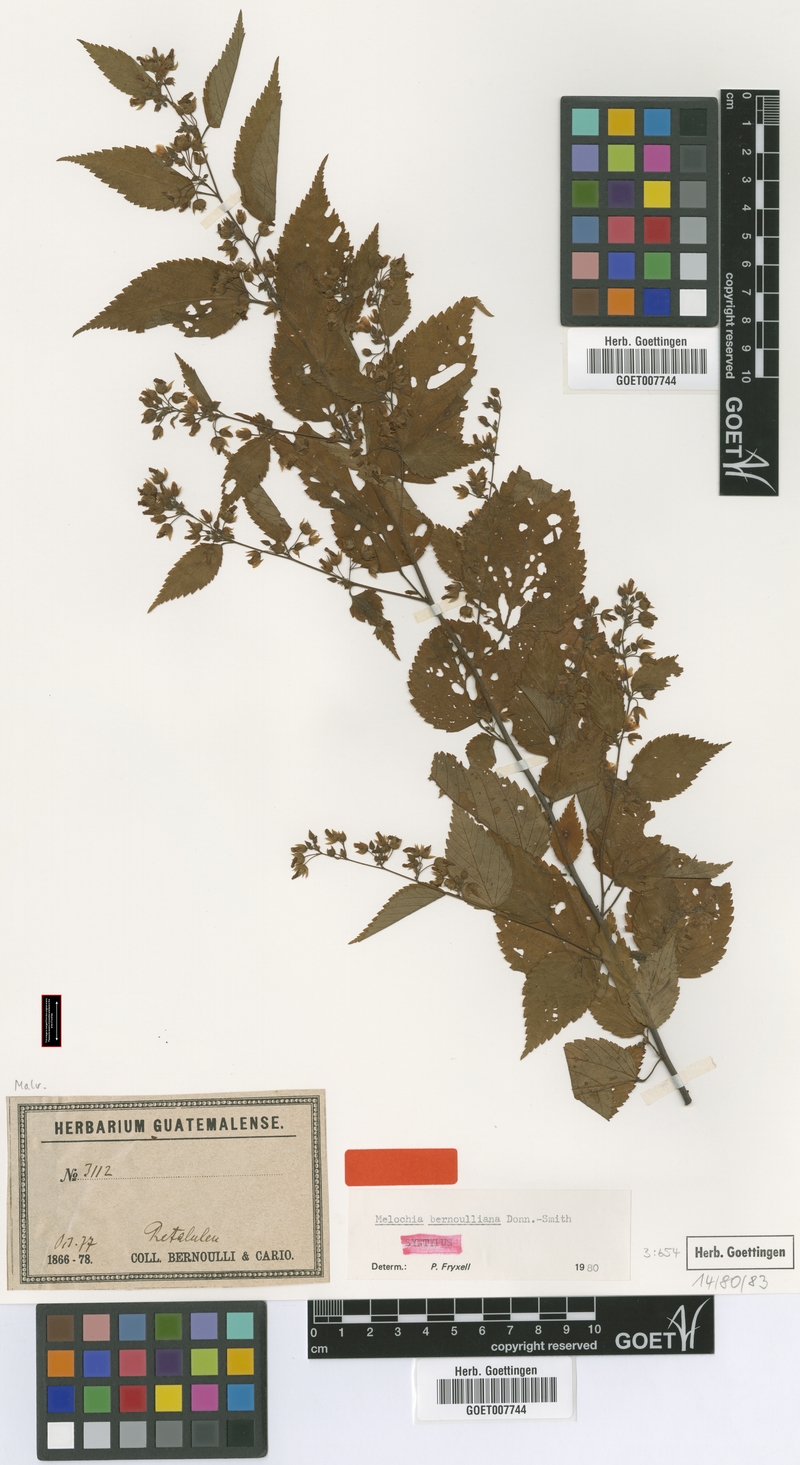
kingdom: Plantae
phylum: Tracheophyta
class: Magnoliopsida
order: Malvales
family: Malvaceae
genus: Melochia
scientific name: Melochia bernoulliana
